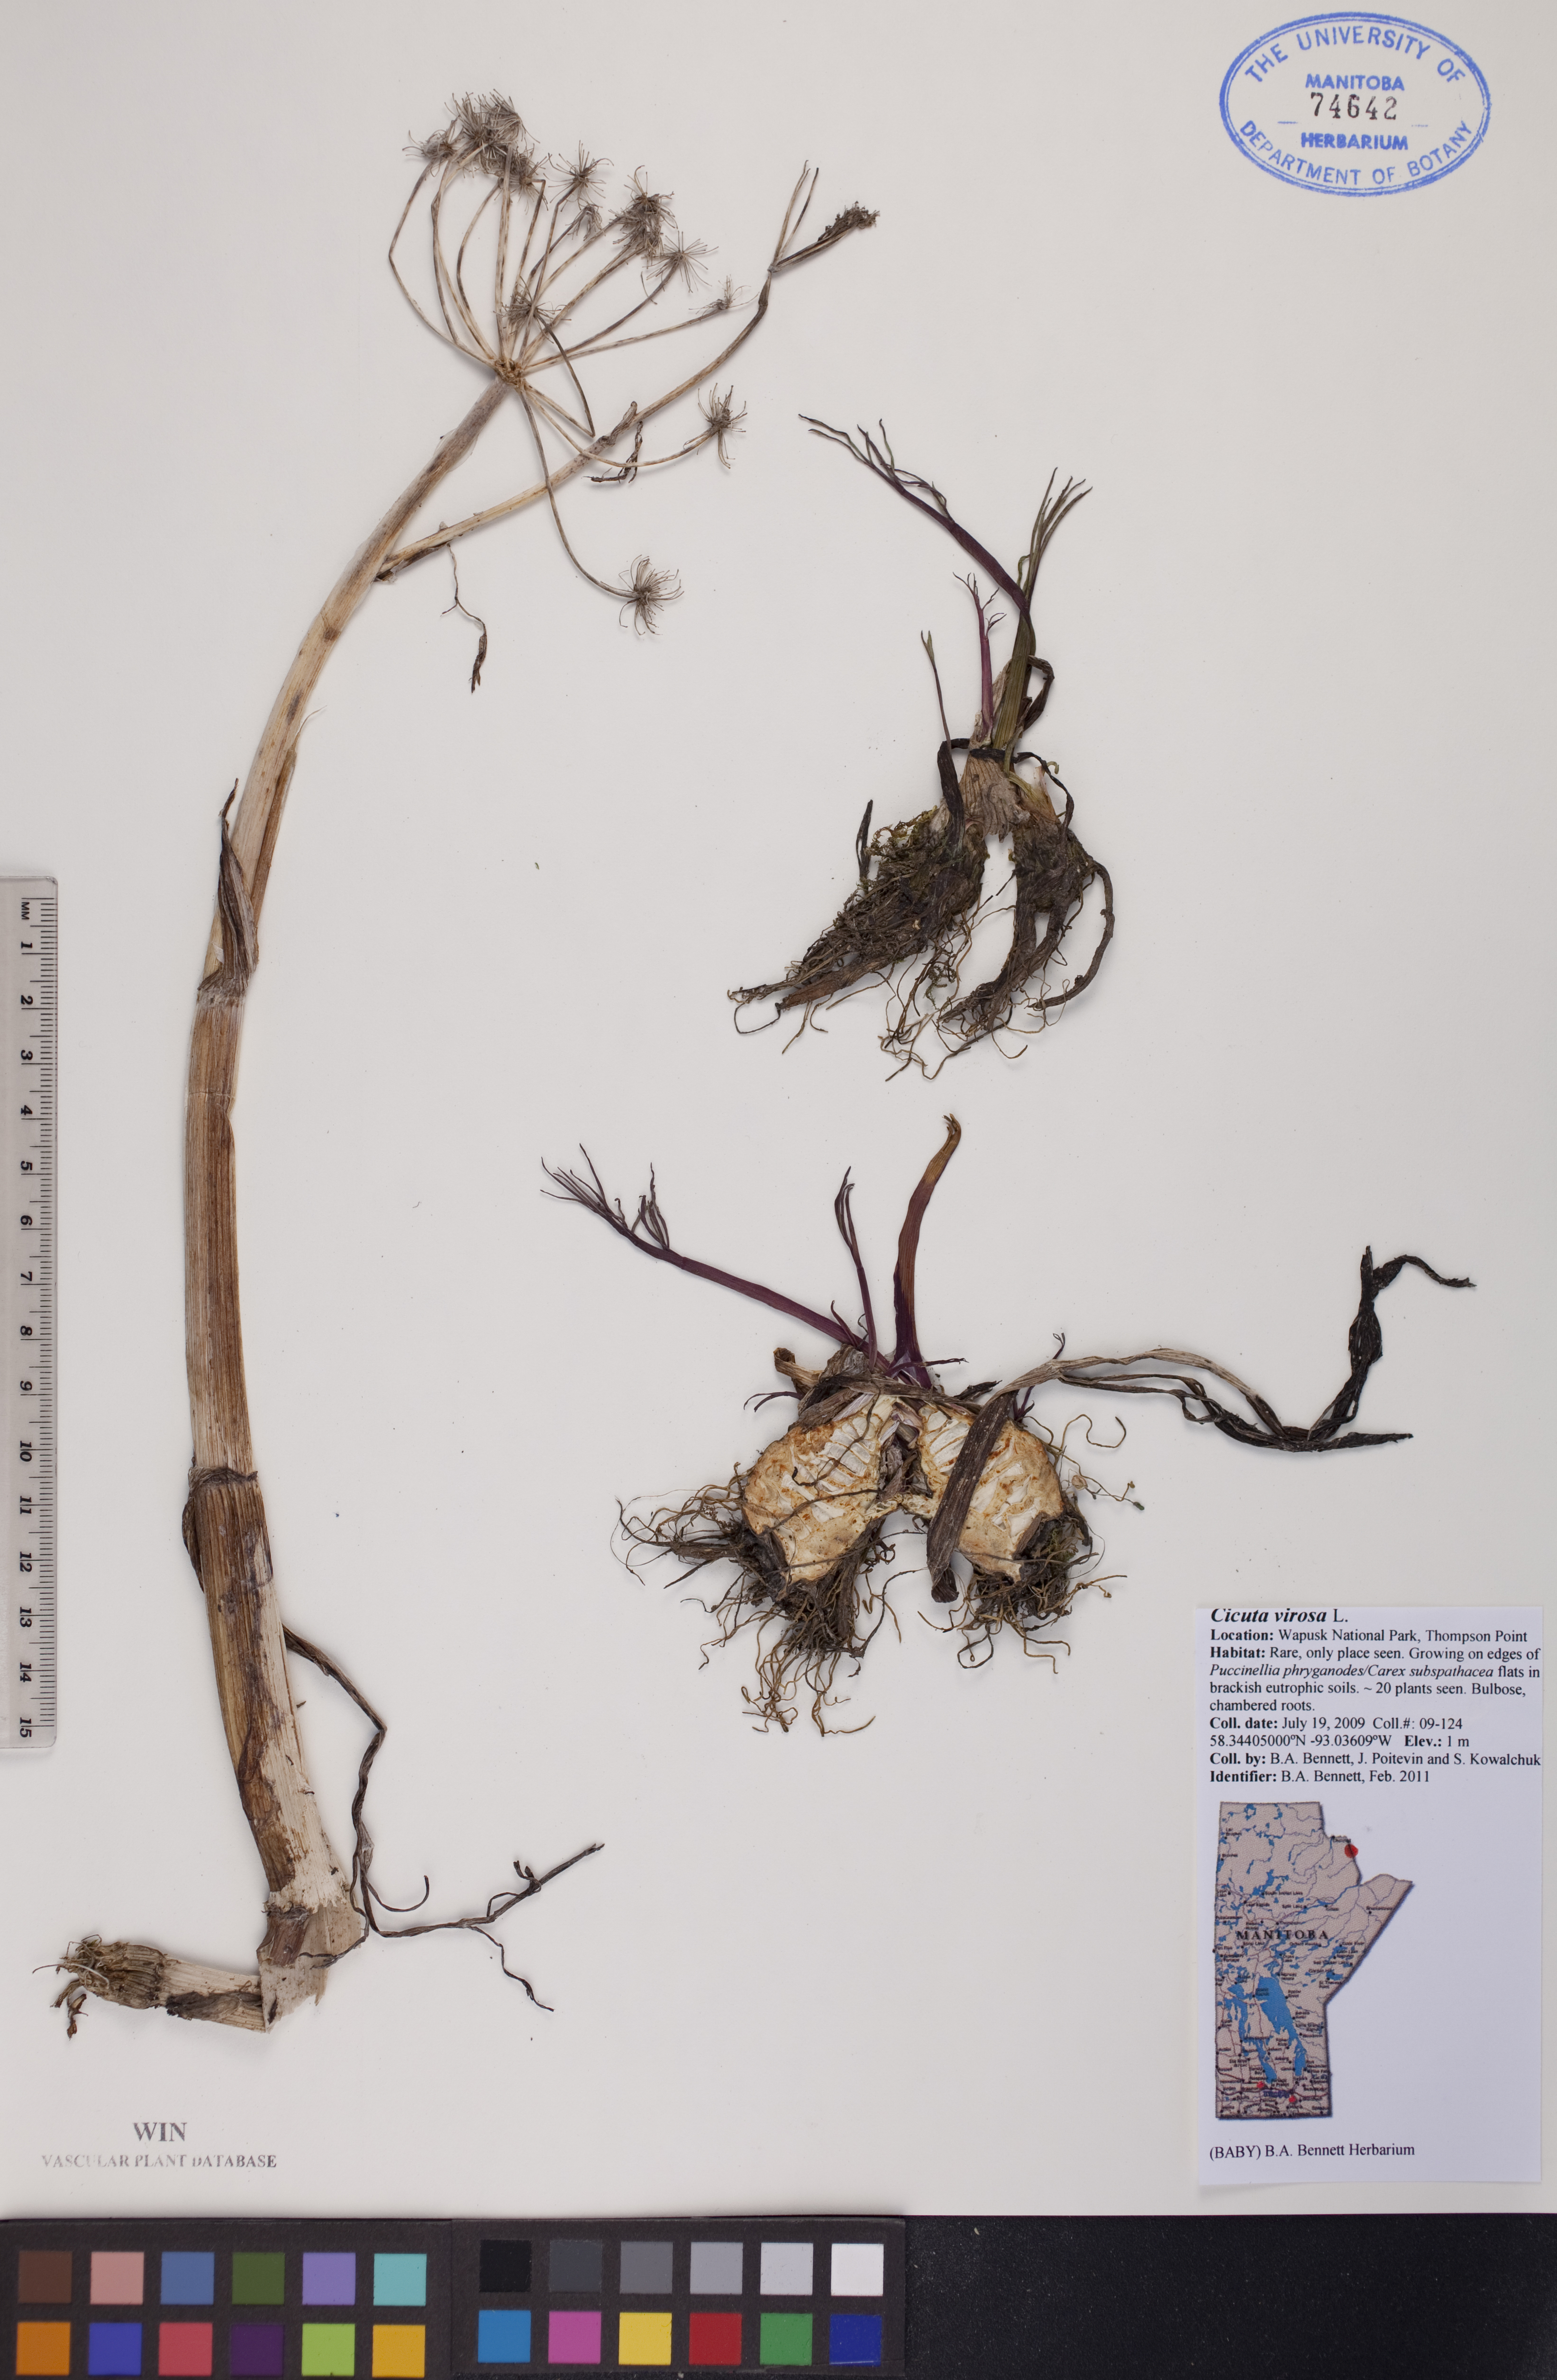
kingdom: Plantae
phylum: Tracheophyta
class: Magnoliopsida
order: Apiales
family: Apiaceae
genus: Cicuta
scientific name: Cicuta virosa
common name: Cowbane
